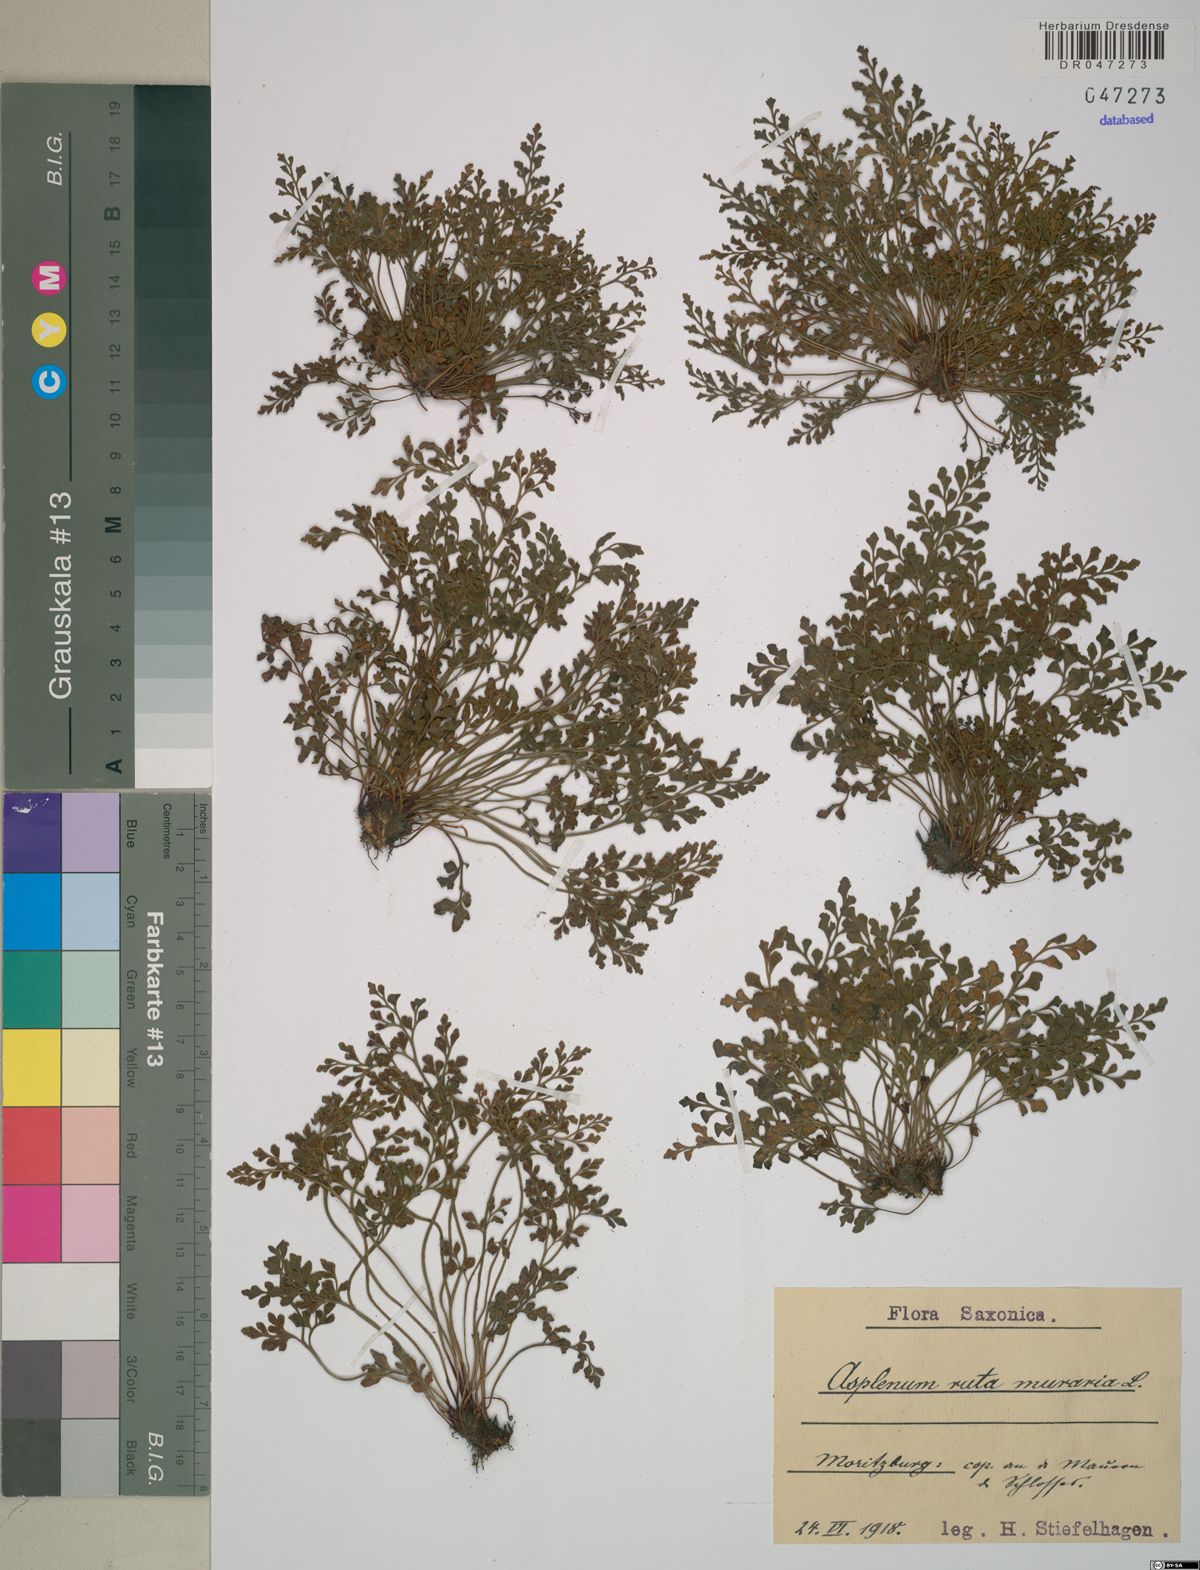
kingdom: Plantae
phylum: Tracheophyta
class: Polypodiopsida
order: Polypodiales
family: Aspleniaceae
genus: Asplenium
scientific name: Asplenium ruta-muraria
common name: Wall-rue
